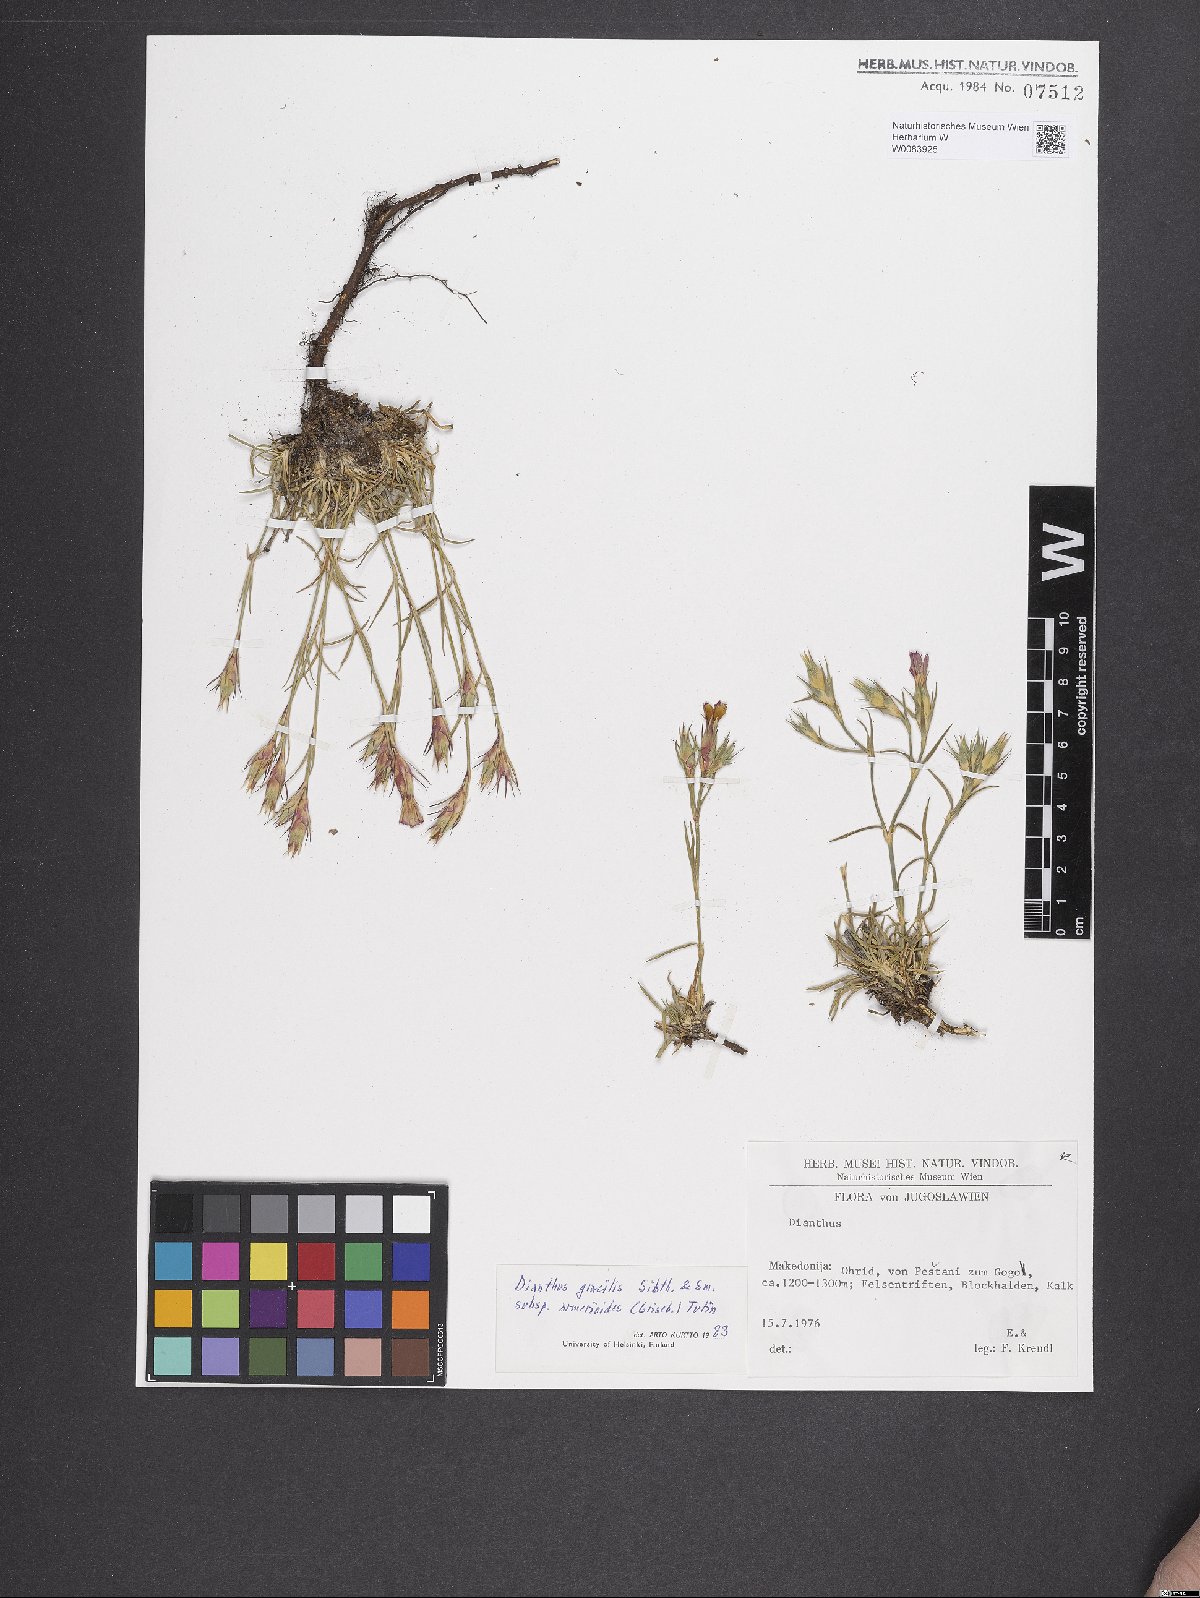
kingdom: Plantae
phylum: Tracheophyta
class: Magnoliopsida
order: Caryophyllales
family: Caryophyllaceae
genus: Dianthus
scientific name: Dianthus gracilis
